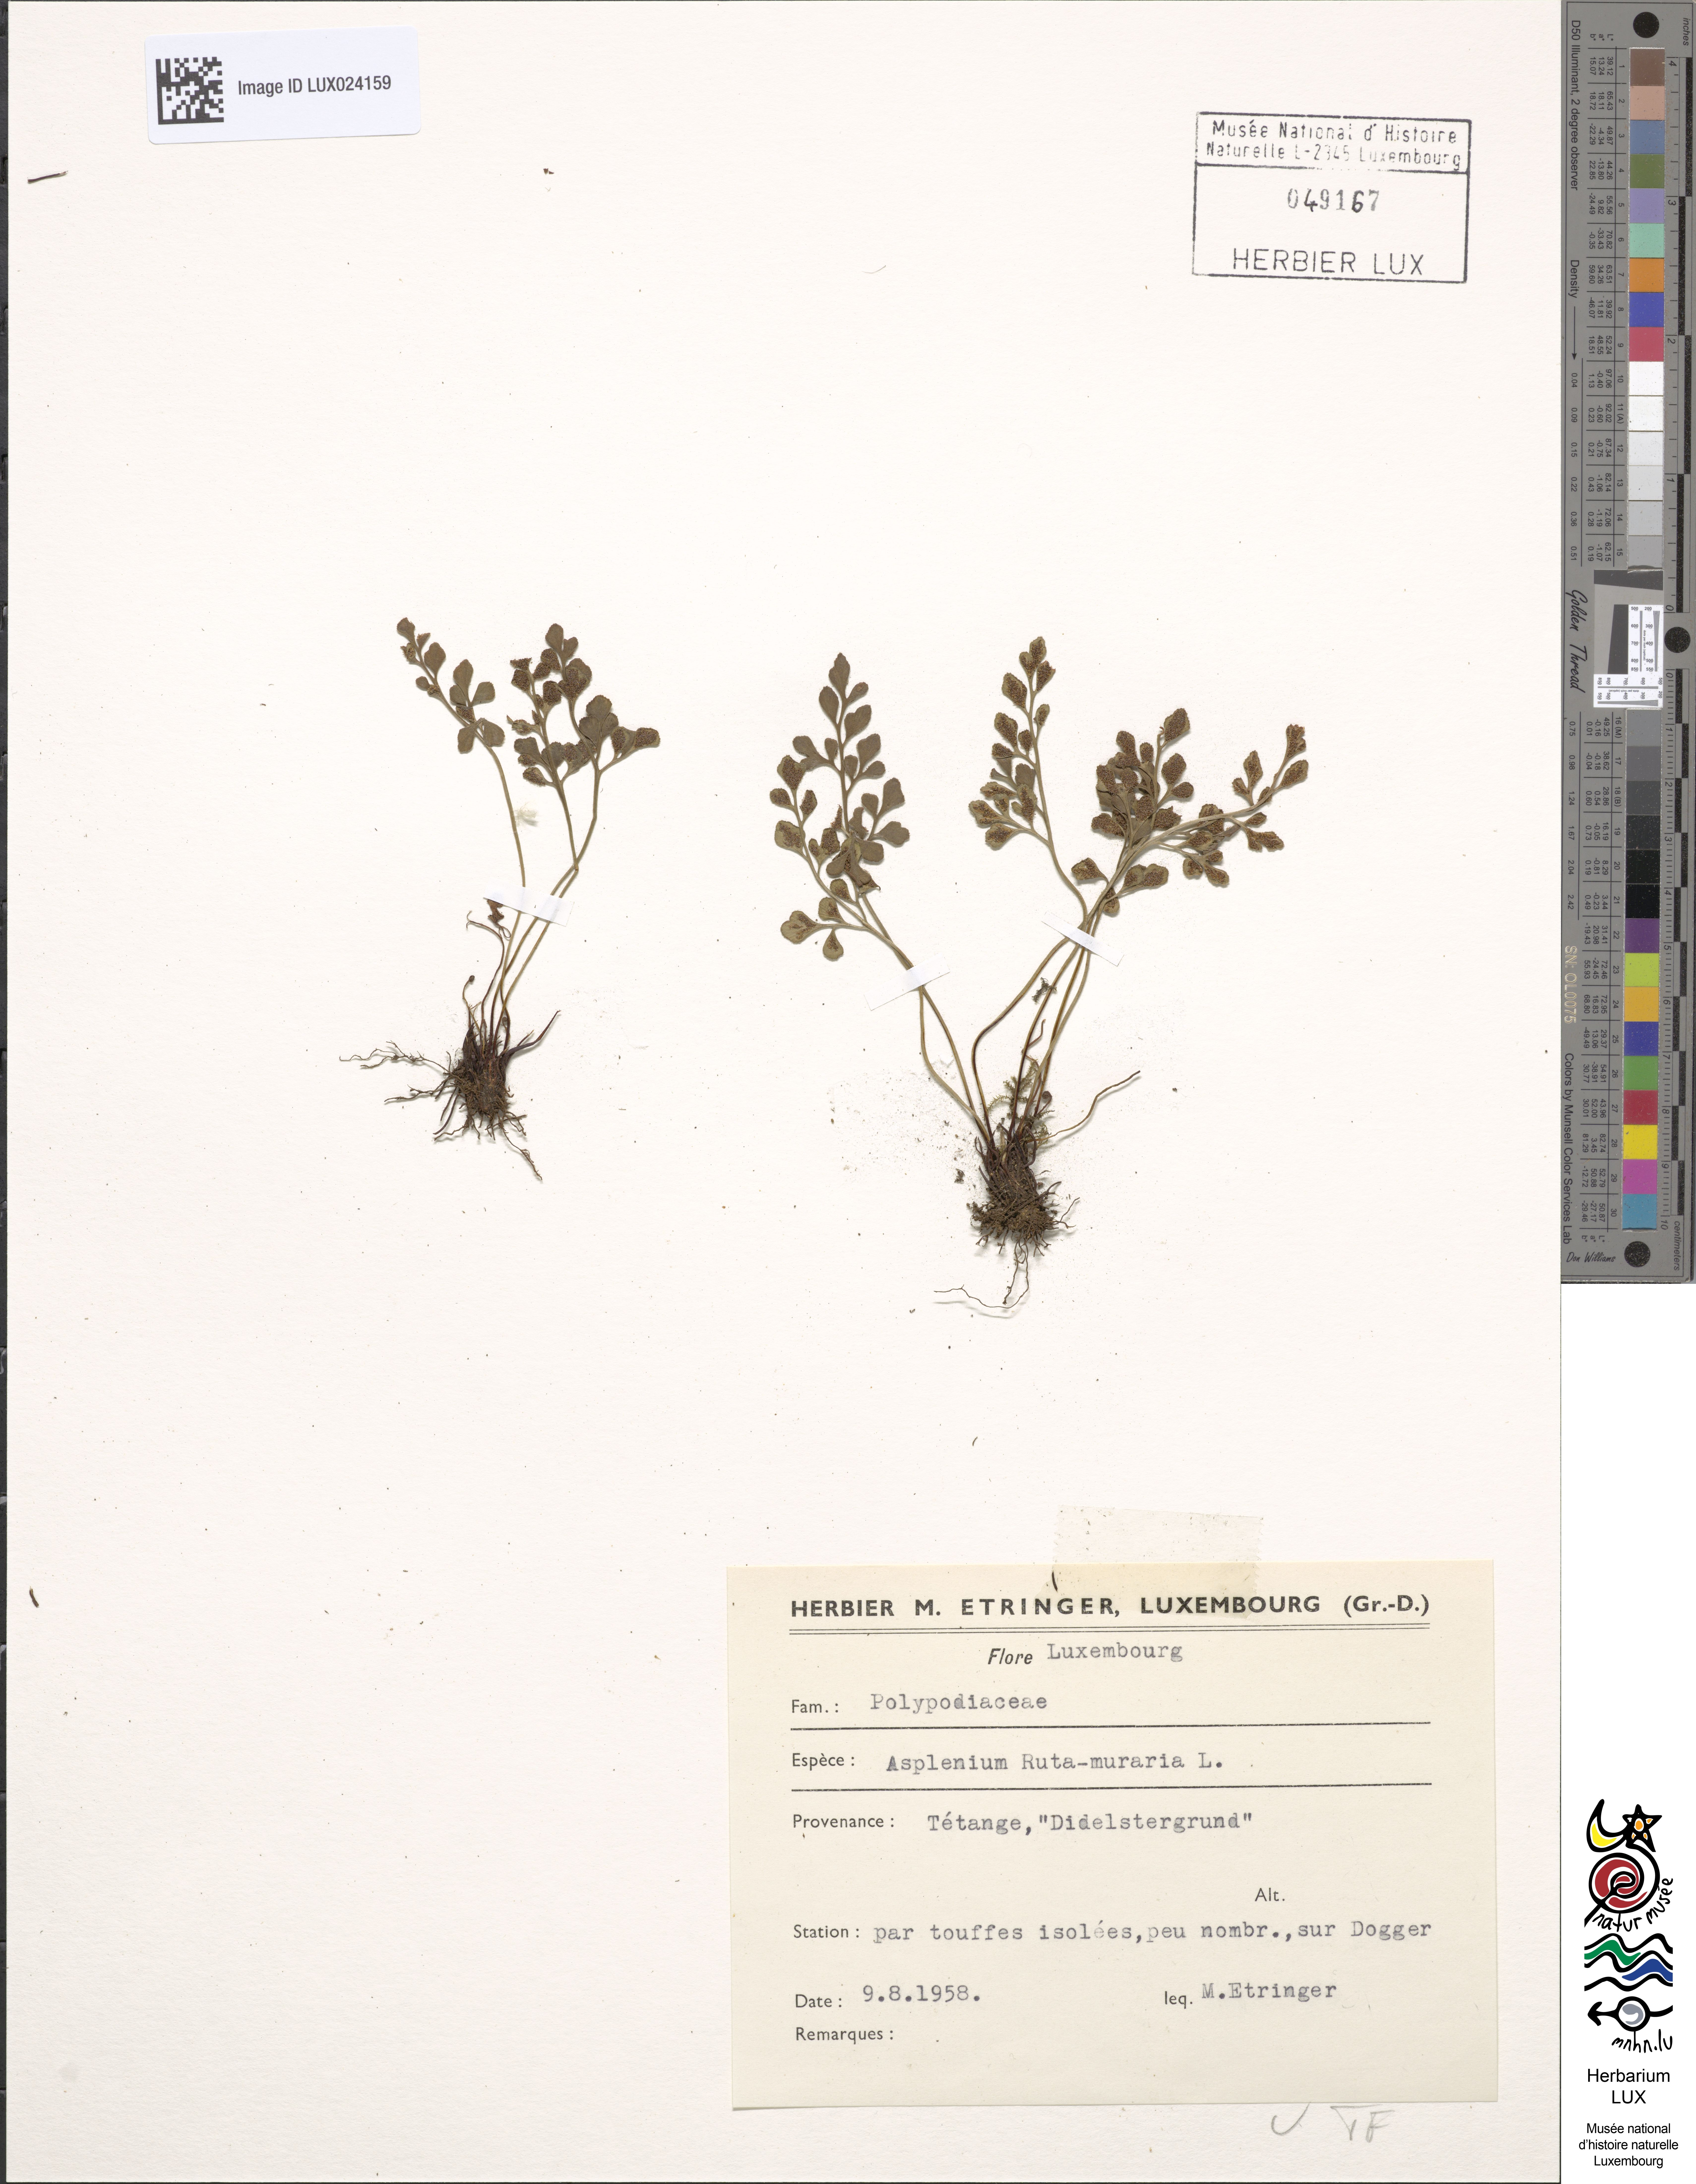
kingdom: Plantae
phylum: Tracheophyta
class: Polypodiopsida
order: Polypodiales
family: Aspleniaceae
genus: Asplenium
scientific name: Asplenium ruta-muraria
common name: Wall-rue
